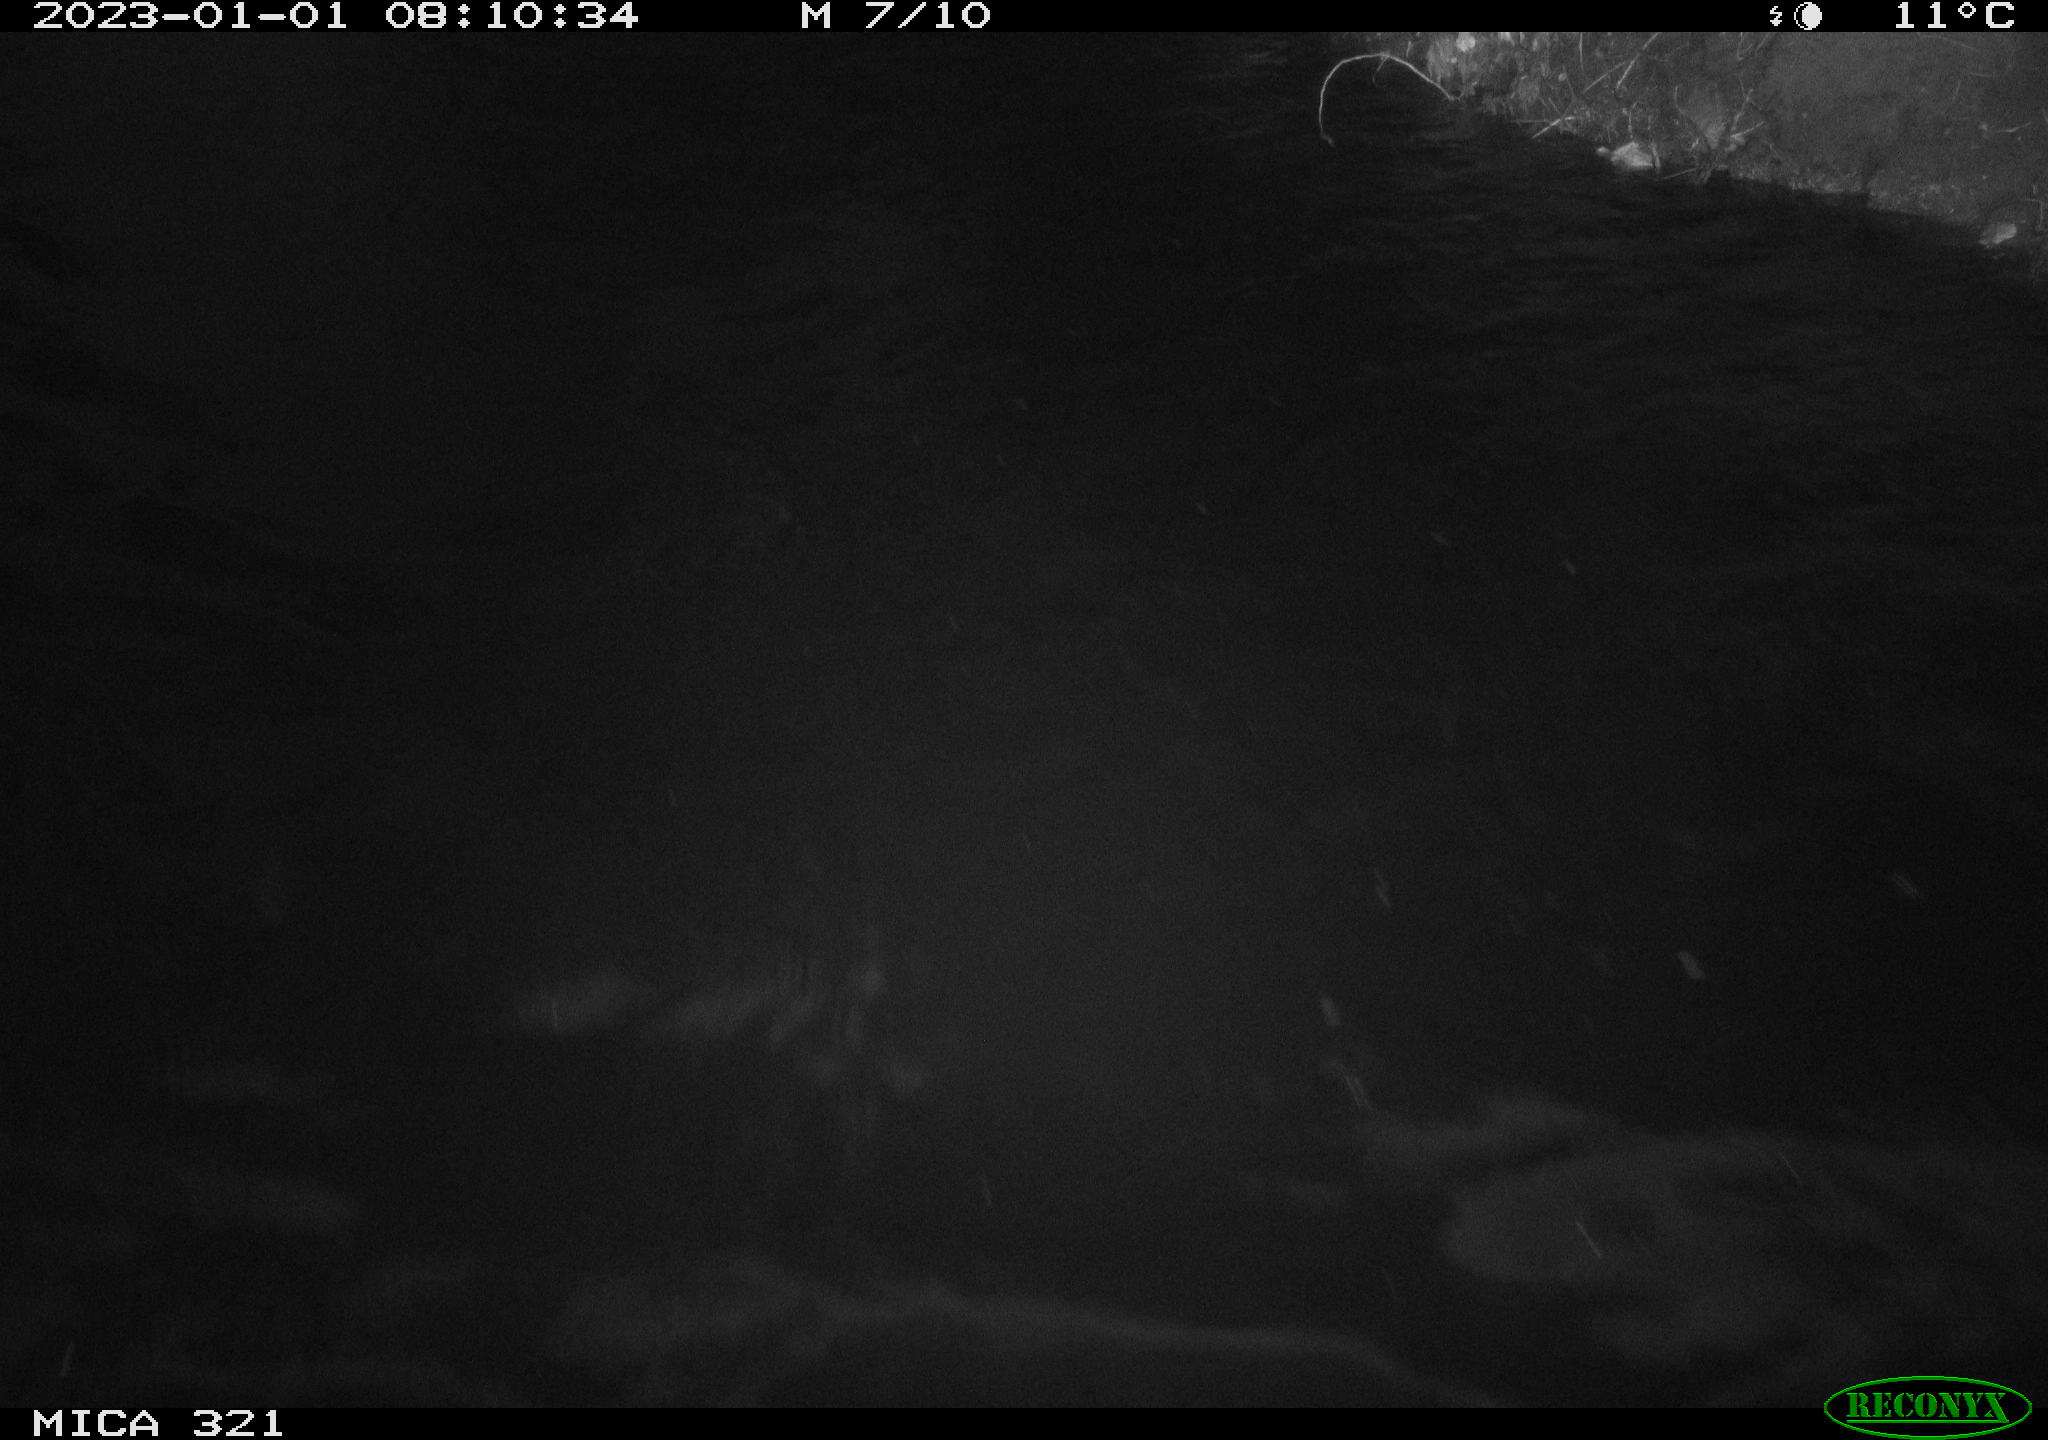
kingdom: Animalia
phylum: Chordata
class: Mammalia
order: Rodentia
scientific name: Rodentia
